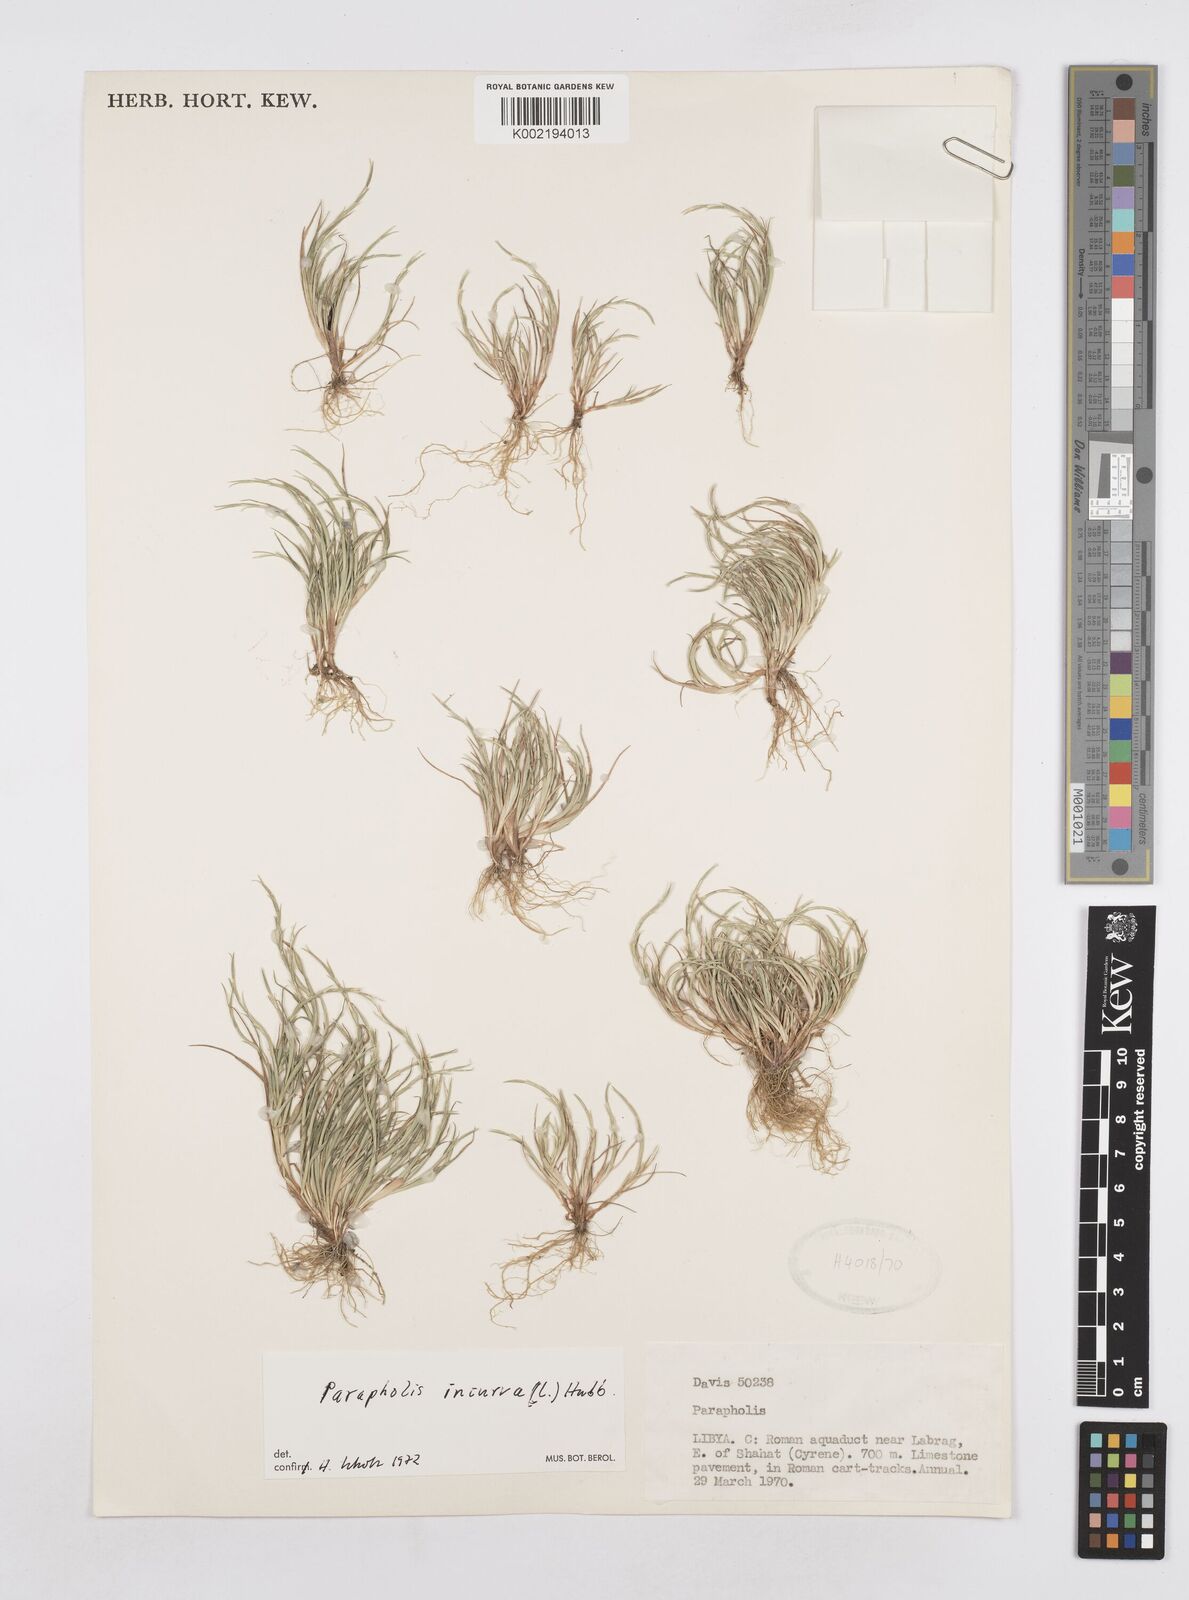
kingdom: Plantae
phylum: Tracheophyta
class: Liliopsida
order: Poales
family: Poaceae
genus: Parapholis
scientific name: Parapholis incurva
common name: Curved sicklegrass
